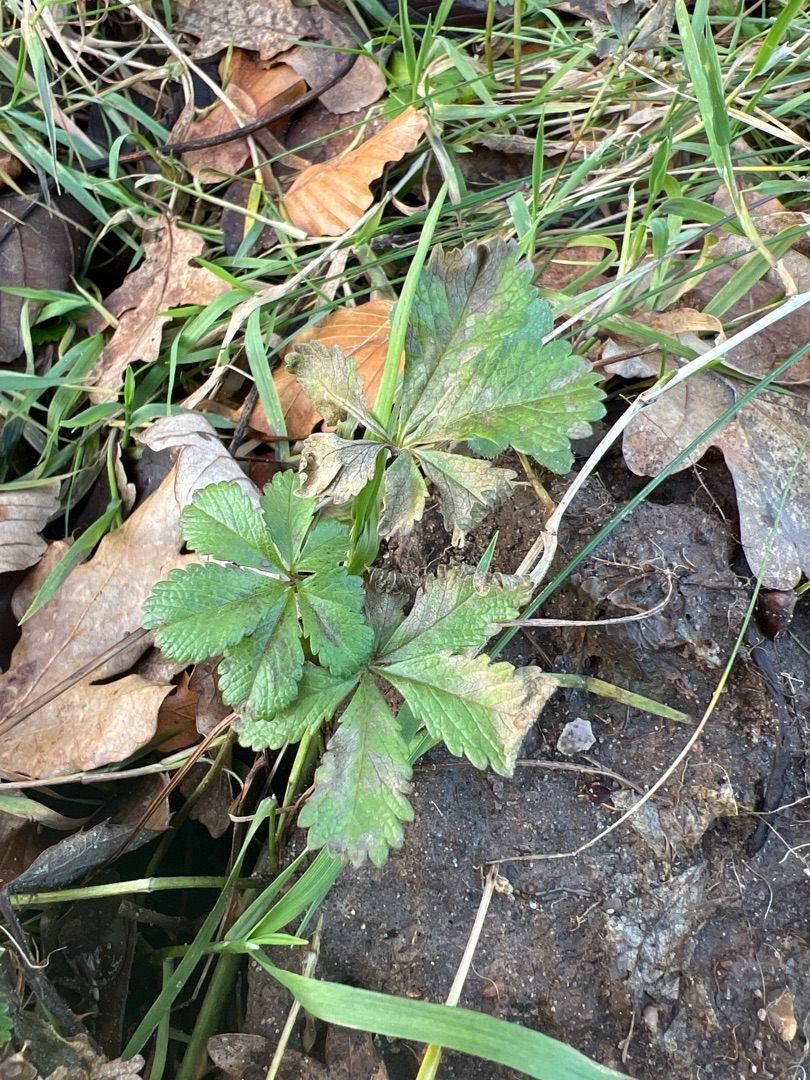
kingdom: Plantae
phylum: Tracheophyta
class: Magnoliopsida
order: Rosales
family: Rosaceae
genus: Potentilla
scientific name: Potentilla reptans
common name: Krybende potentil
